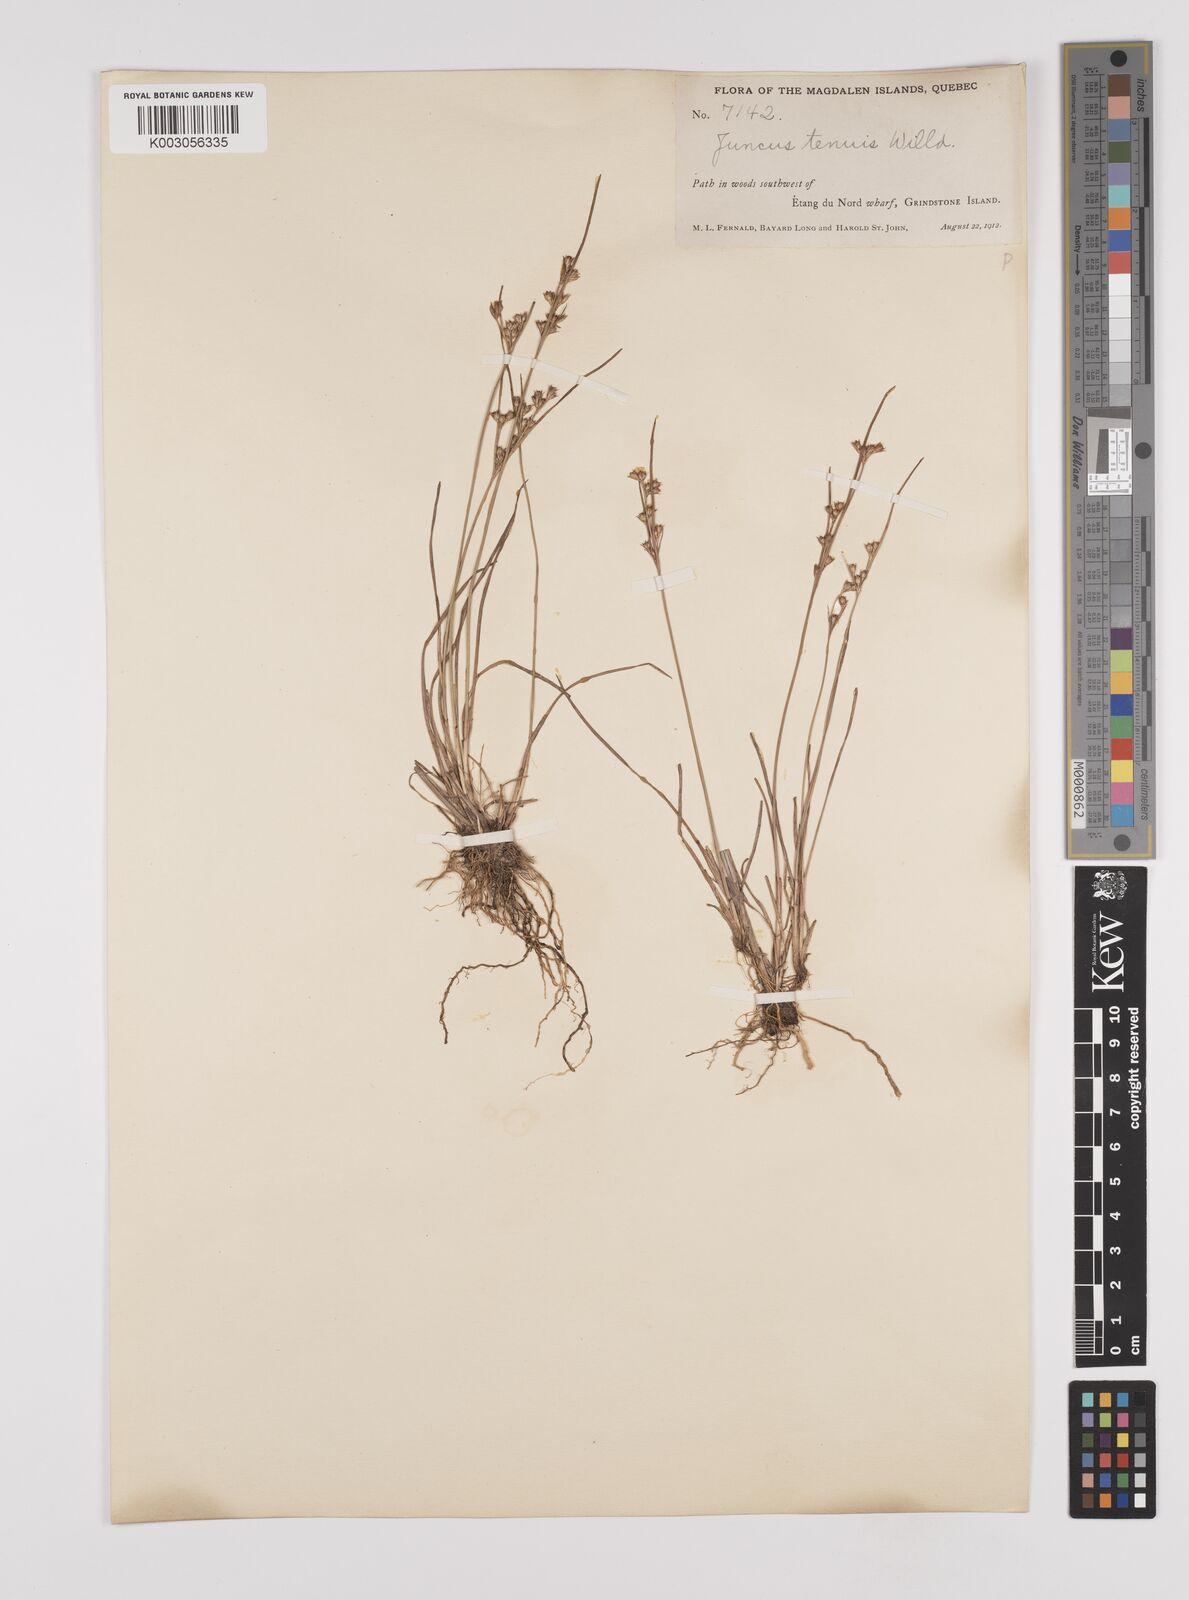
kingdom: Plantae
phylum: Tracheophyta
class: Liliopsida
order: Poales
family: Juncaceae
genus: Juncus
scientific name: Juncus tenuis
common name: Slender rush
